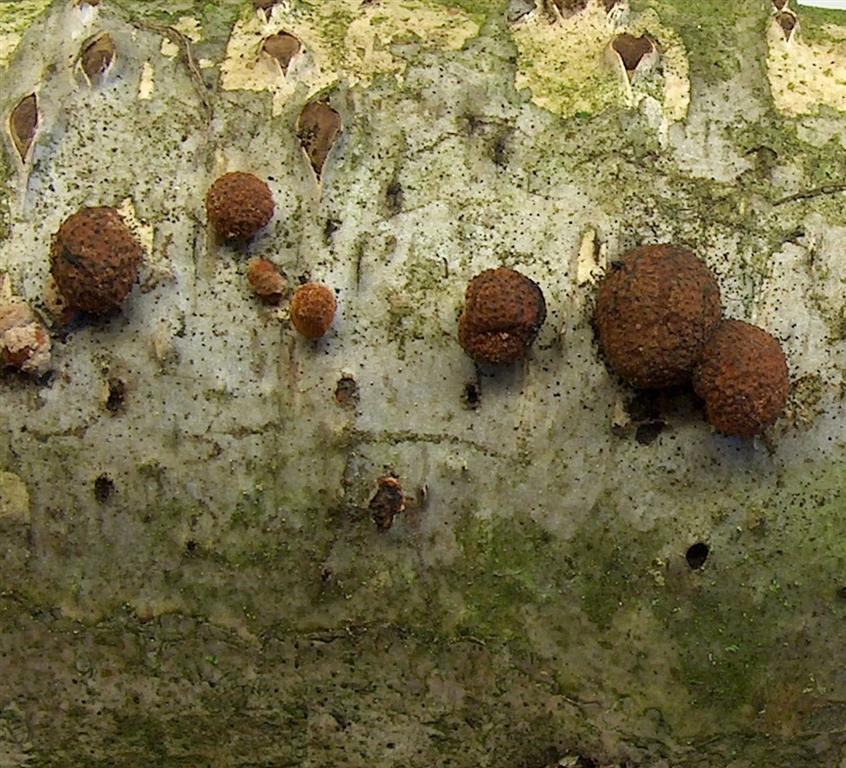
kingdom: Fungi
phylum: Ascomycota
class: Sordariomycetes
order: Xylariales
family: Hypoxylaceae
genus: Hypoxylon
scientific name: Hypoxylon fragiforme
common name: kuljordbær
